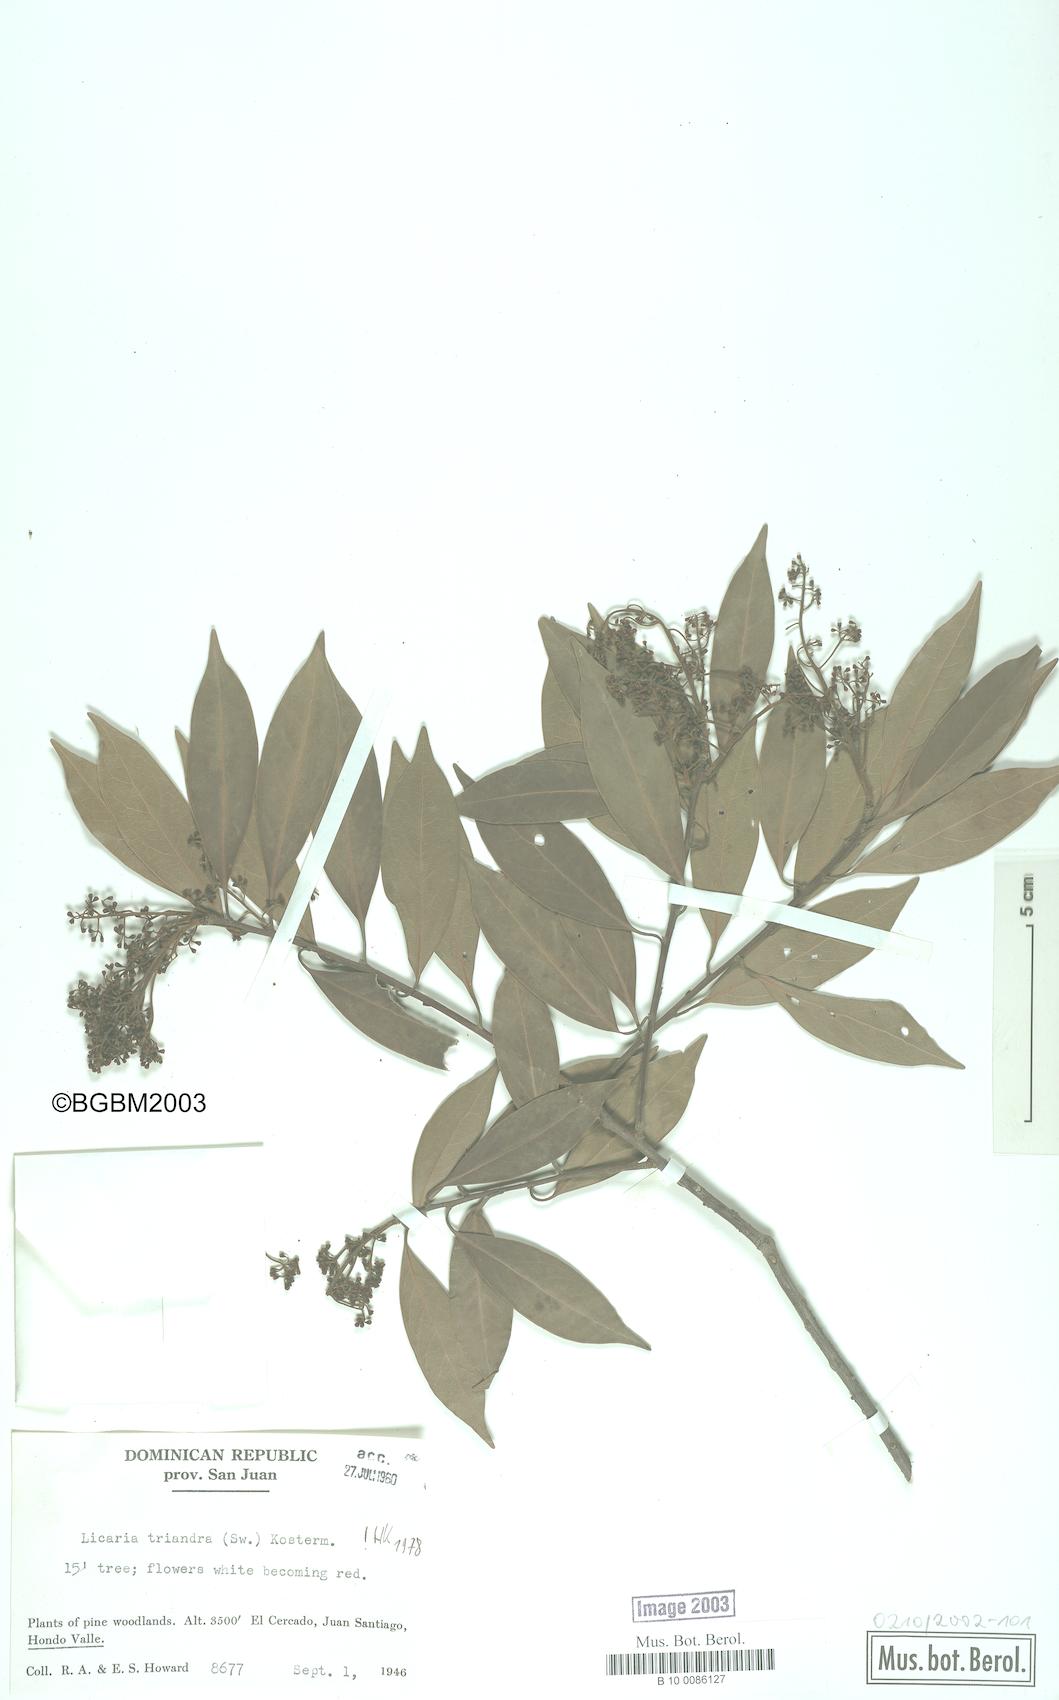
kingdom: Plantae
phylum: Tracheophyta
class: Magnoliopsida
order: Laurales
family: Lauraceae
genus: Licaria
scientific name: Licaria triandra
